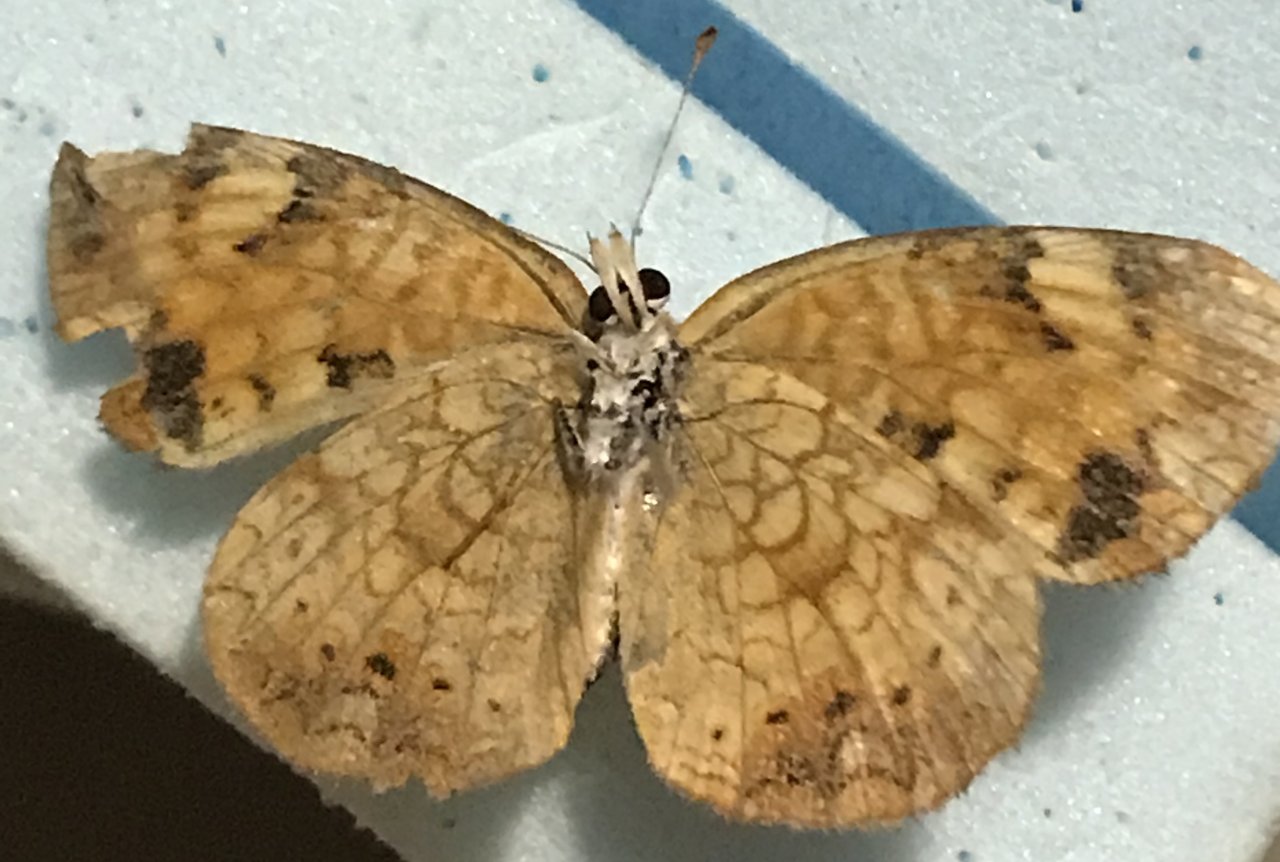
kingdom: Animalia
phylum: Arthropoda
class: Insecta
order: Lepidoptera
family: Nymphalidae
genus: Phyciodes
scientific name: Phyciodes tharos
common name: Northern Crescent
